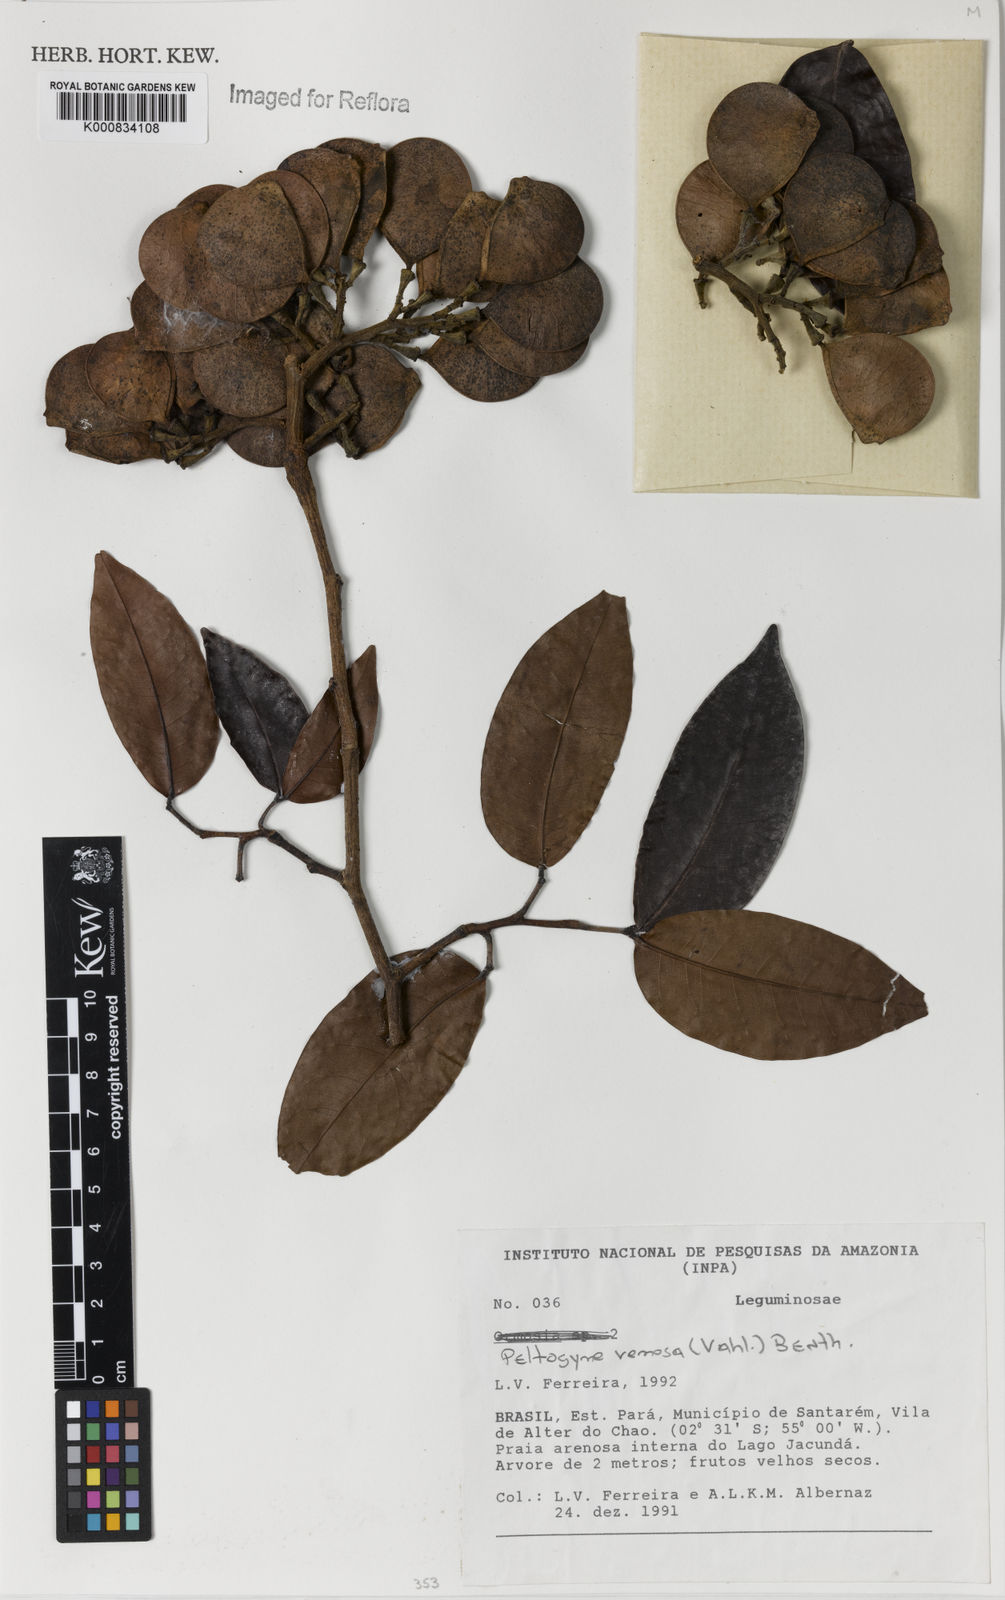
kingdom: Plantae
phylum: Tracheophyta
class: Magnoliopsida
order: Fabales
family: Fabaceae
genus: Peltogyne
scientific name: Peltogyne venosa
